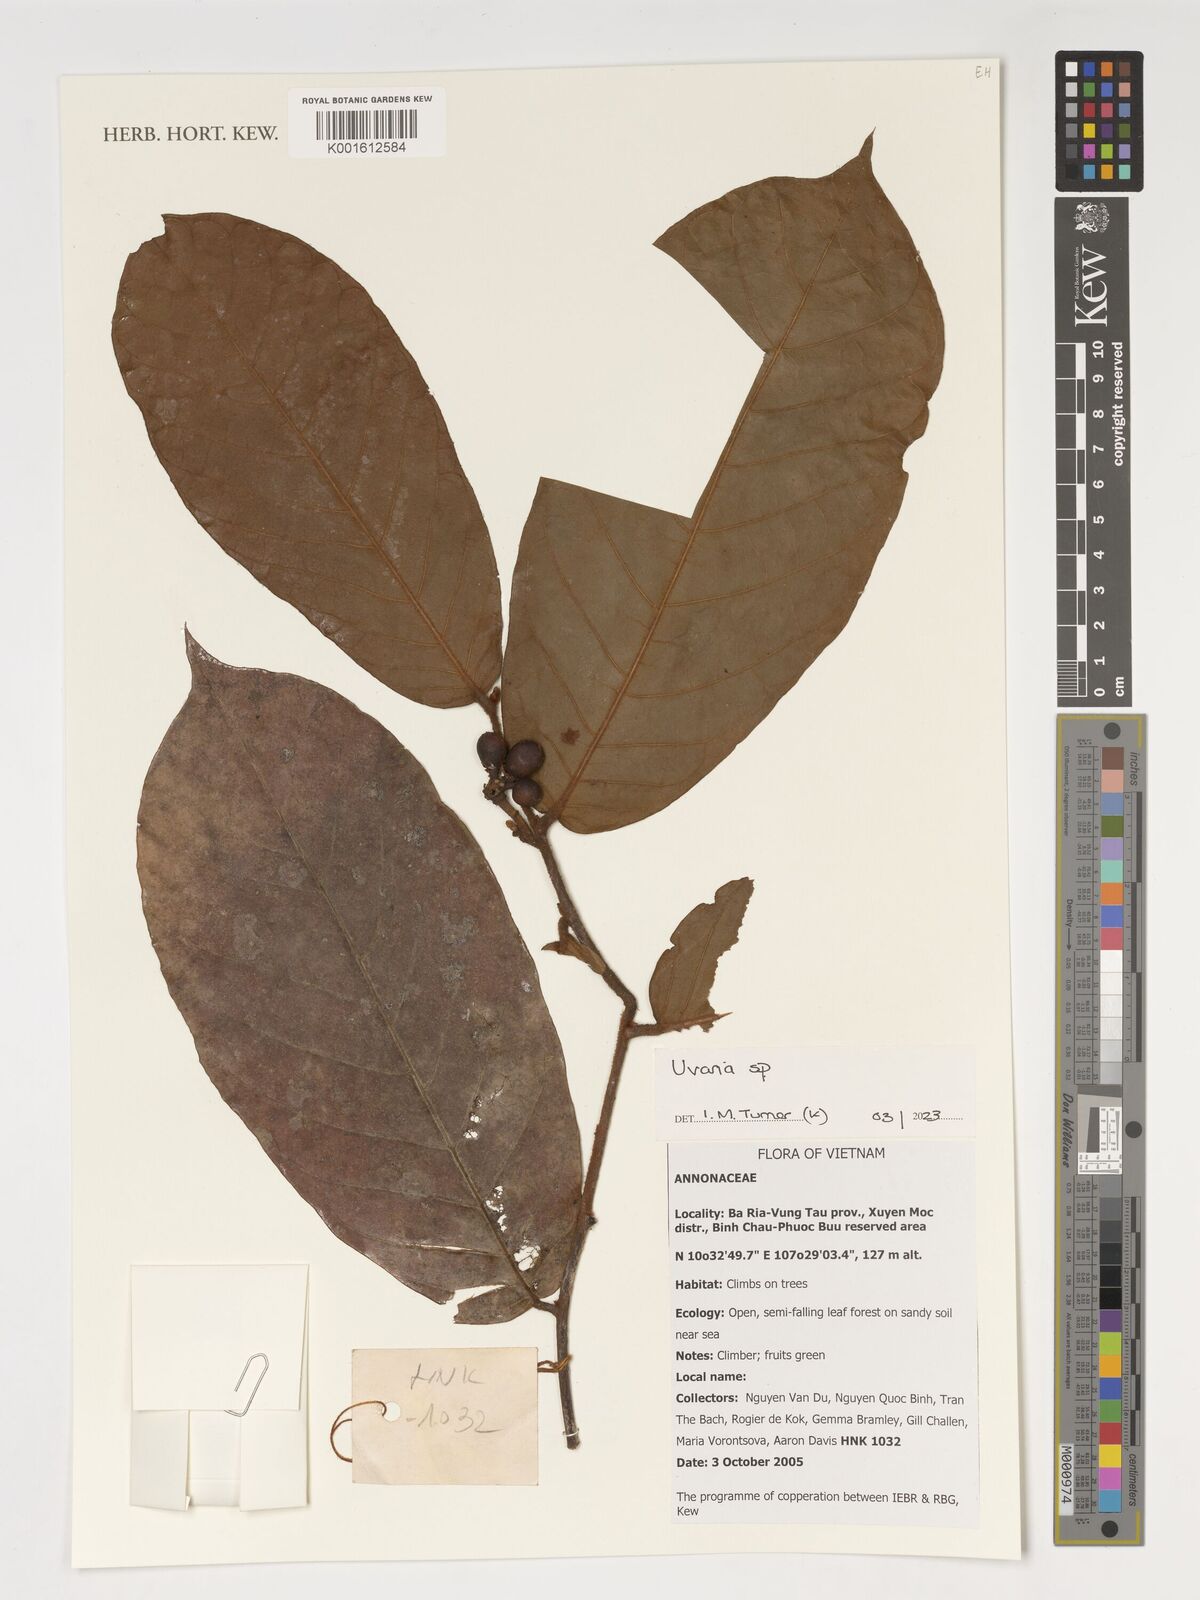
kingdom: Plantae
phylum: Tracheophyta
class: Magnoliopsida
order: Magnoliales
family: Annonaceae
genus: Uvaria
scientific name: Uvaria
